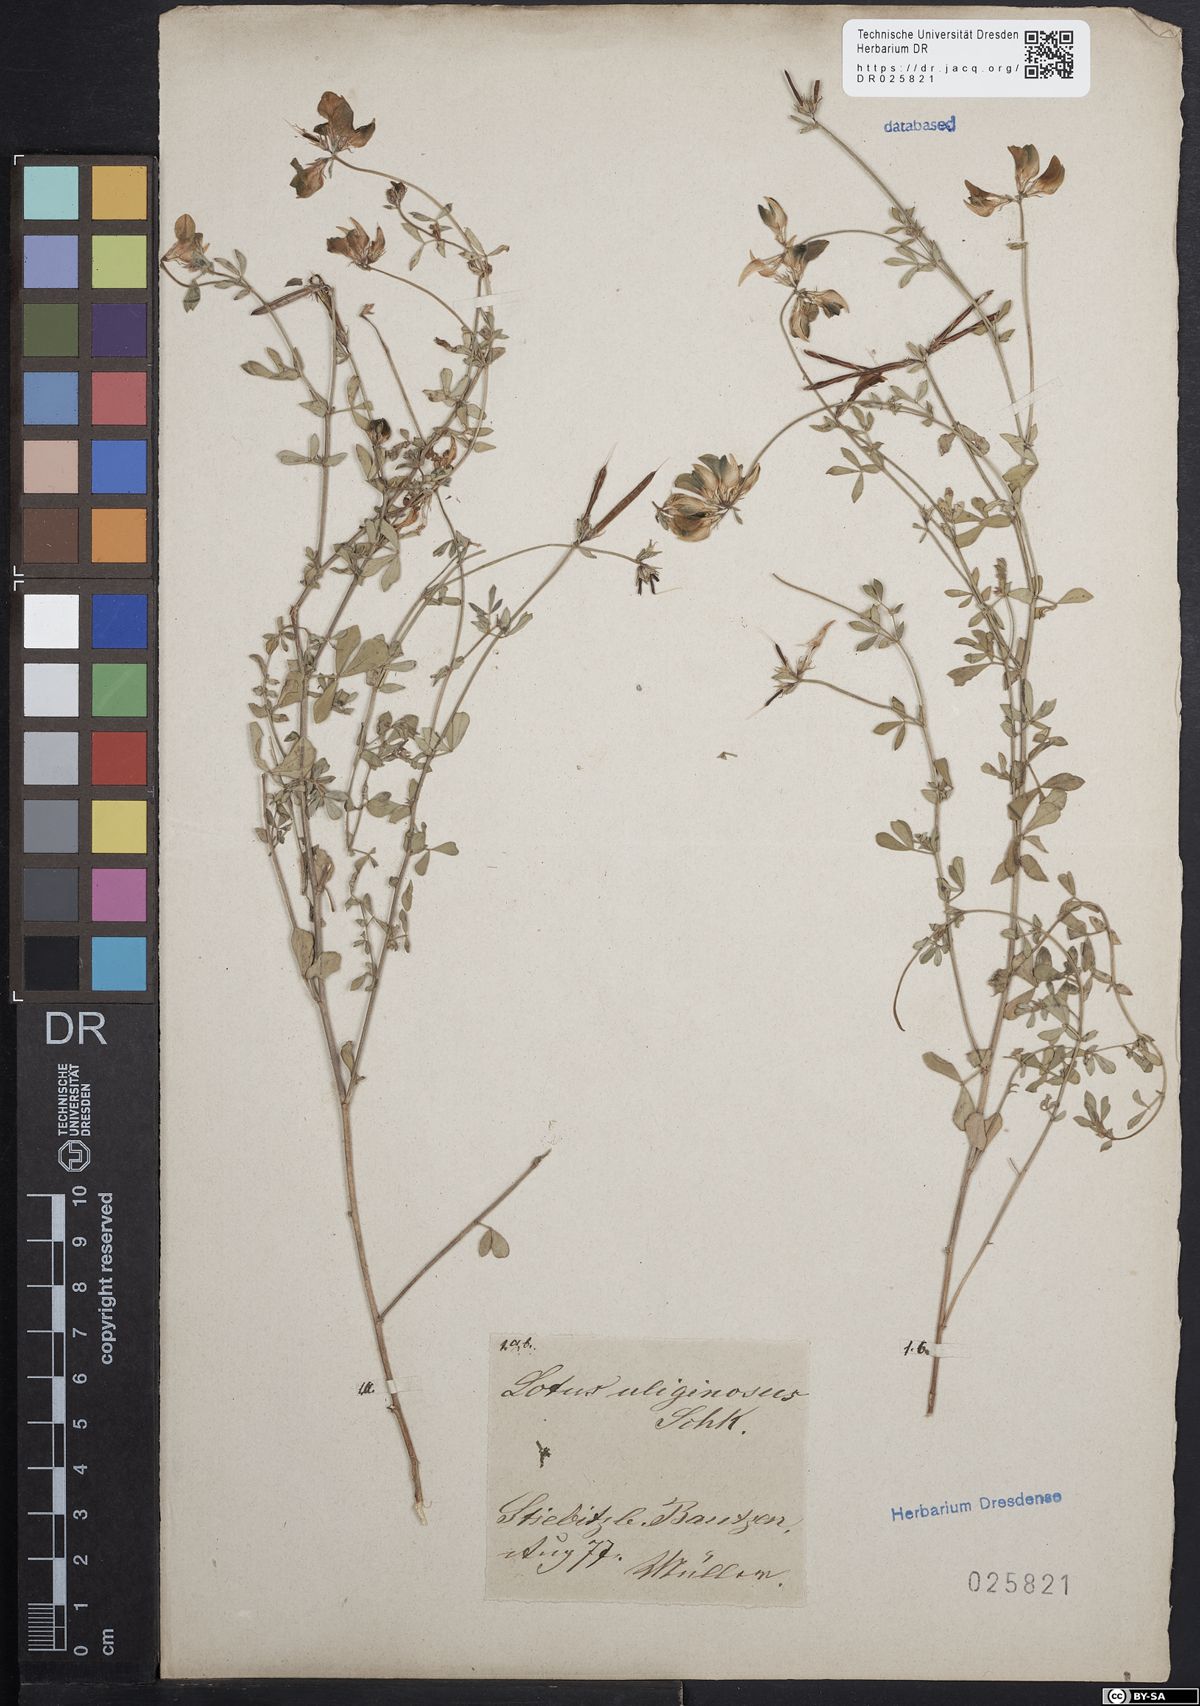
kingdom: Plantae
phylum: Tracheophyta
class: Magnoliopsida
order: Fabales
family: Fabaceae
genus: Lotus
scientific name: Lotus pedunculatus
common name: Greater birdsfoot-trefoil
